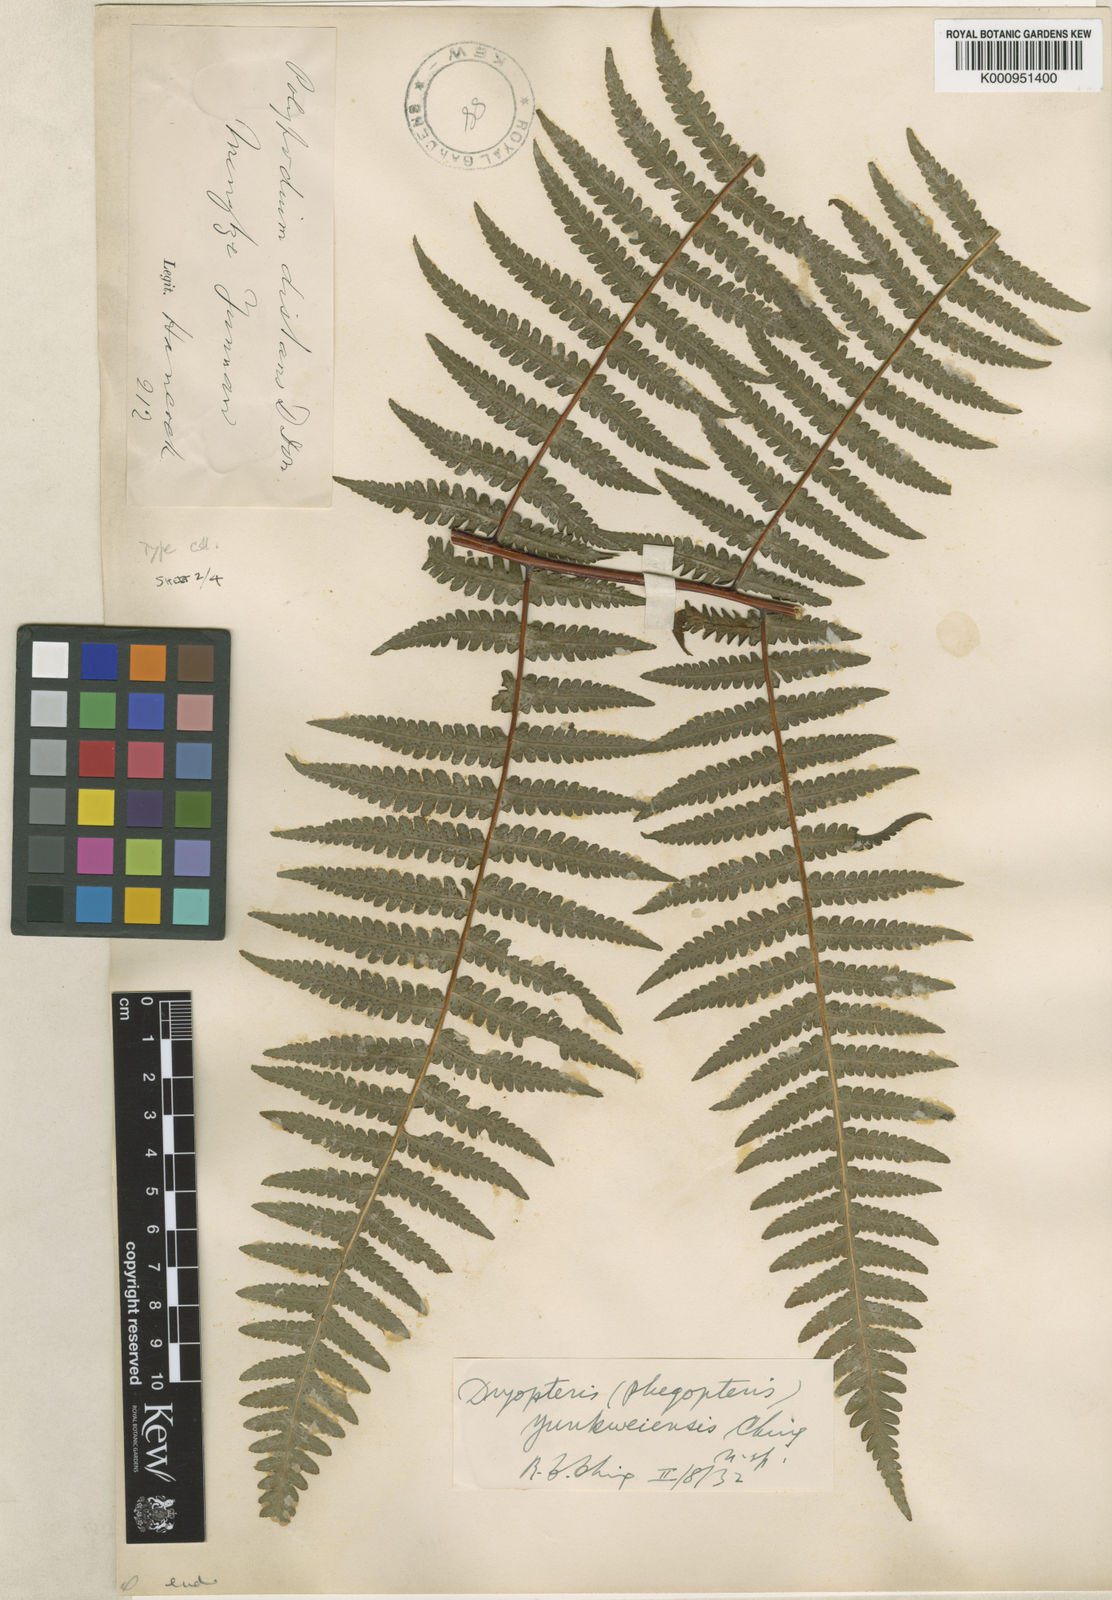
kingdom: Plantae
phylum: Tracheophyta
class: Polypodiopsida
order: Polypodiales
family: Thelypteridaceae
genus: Pseudophegopteris
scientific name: Pseudophegopteris pyrrhorachis
